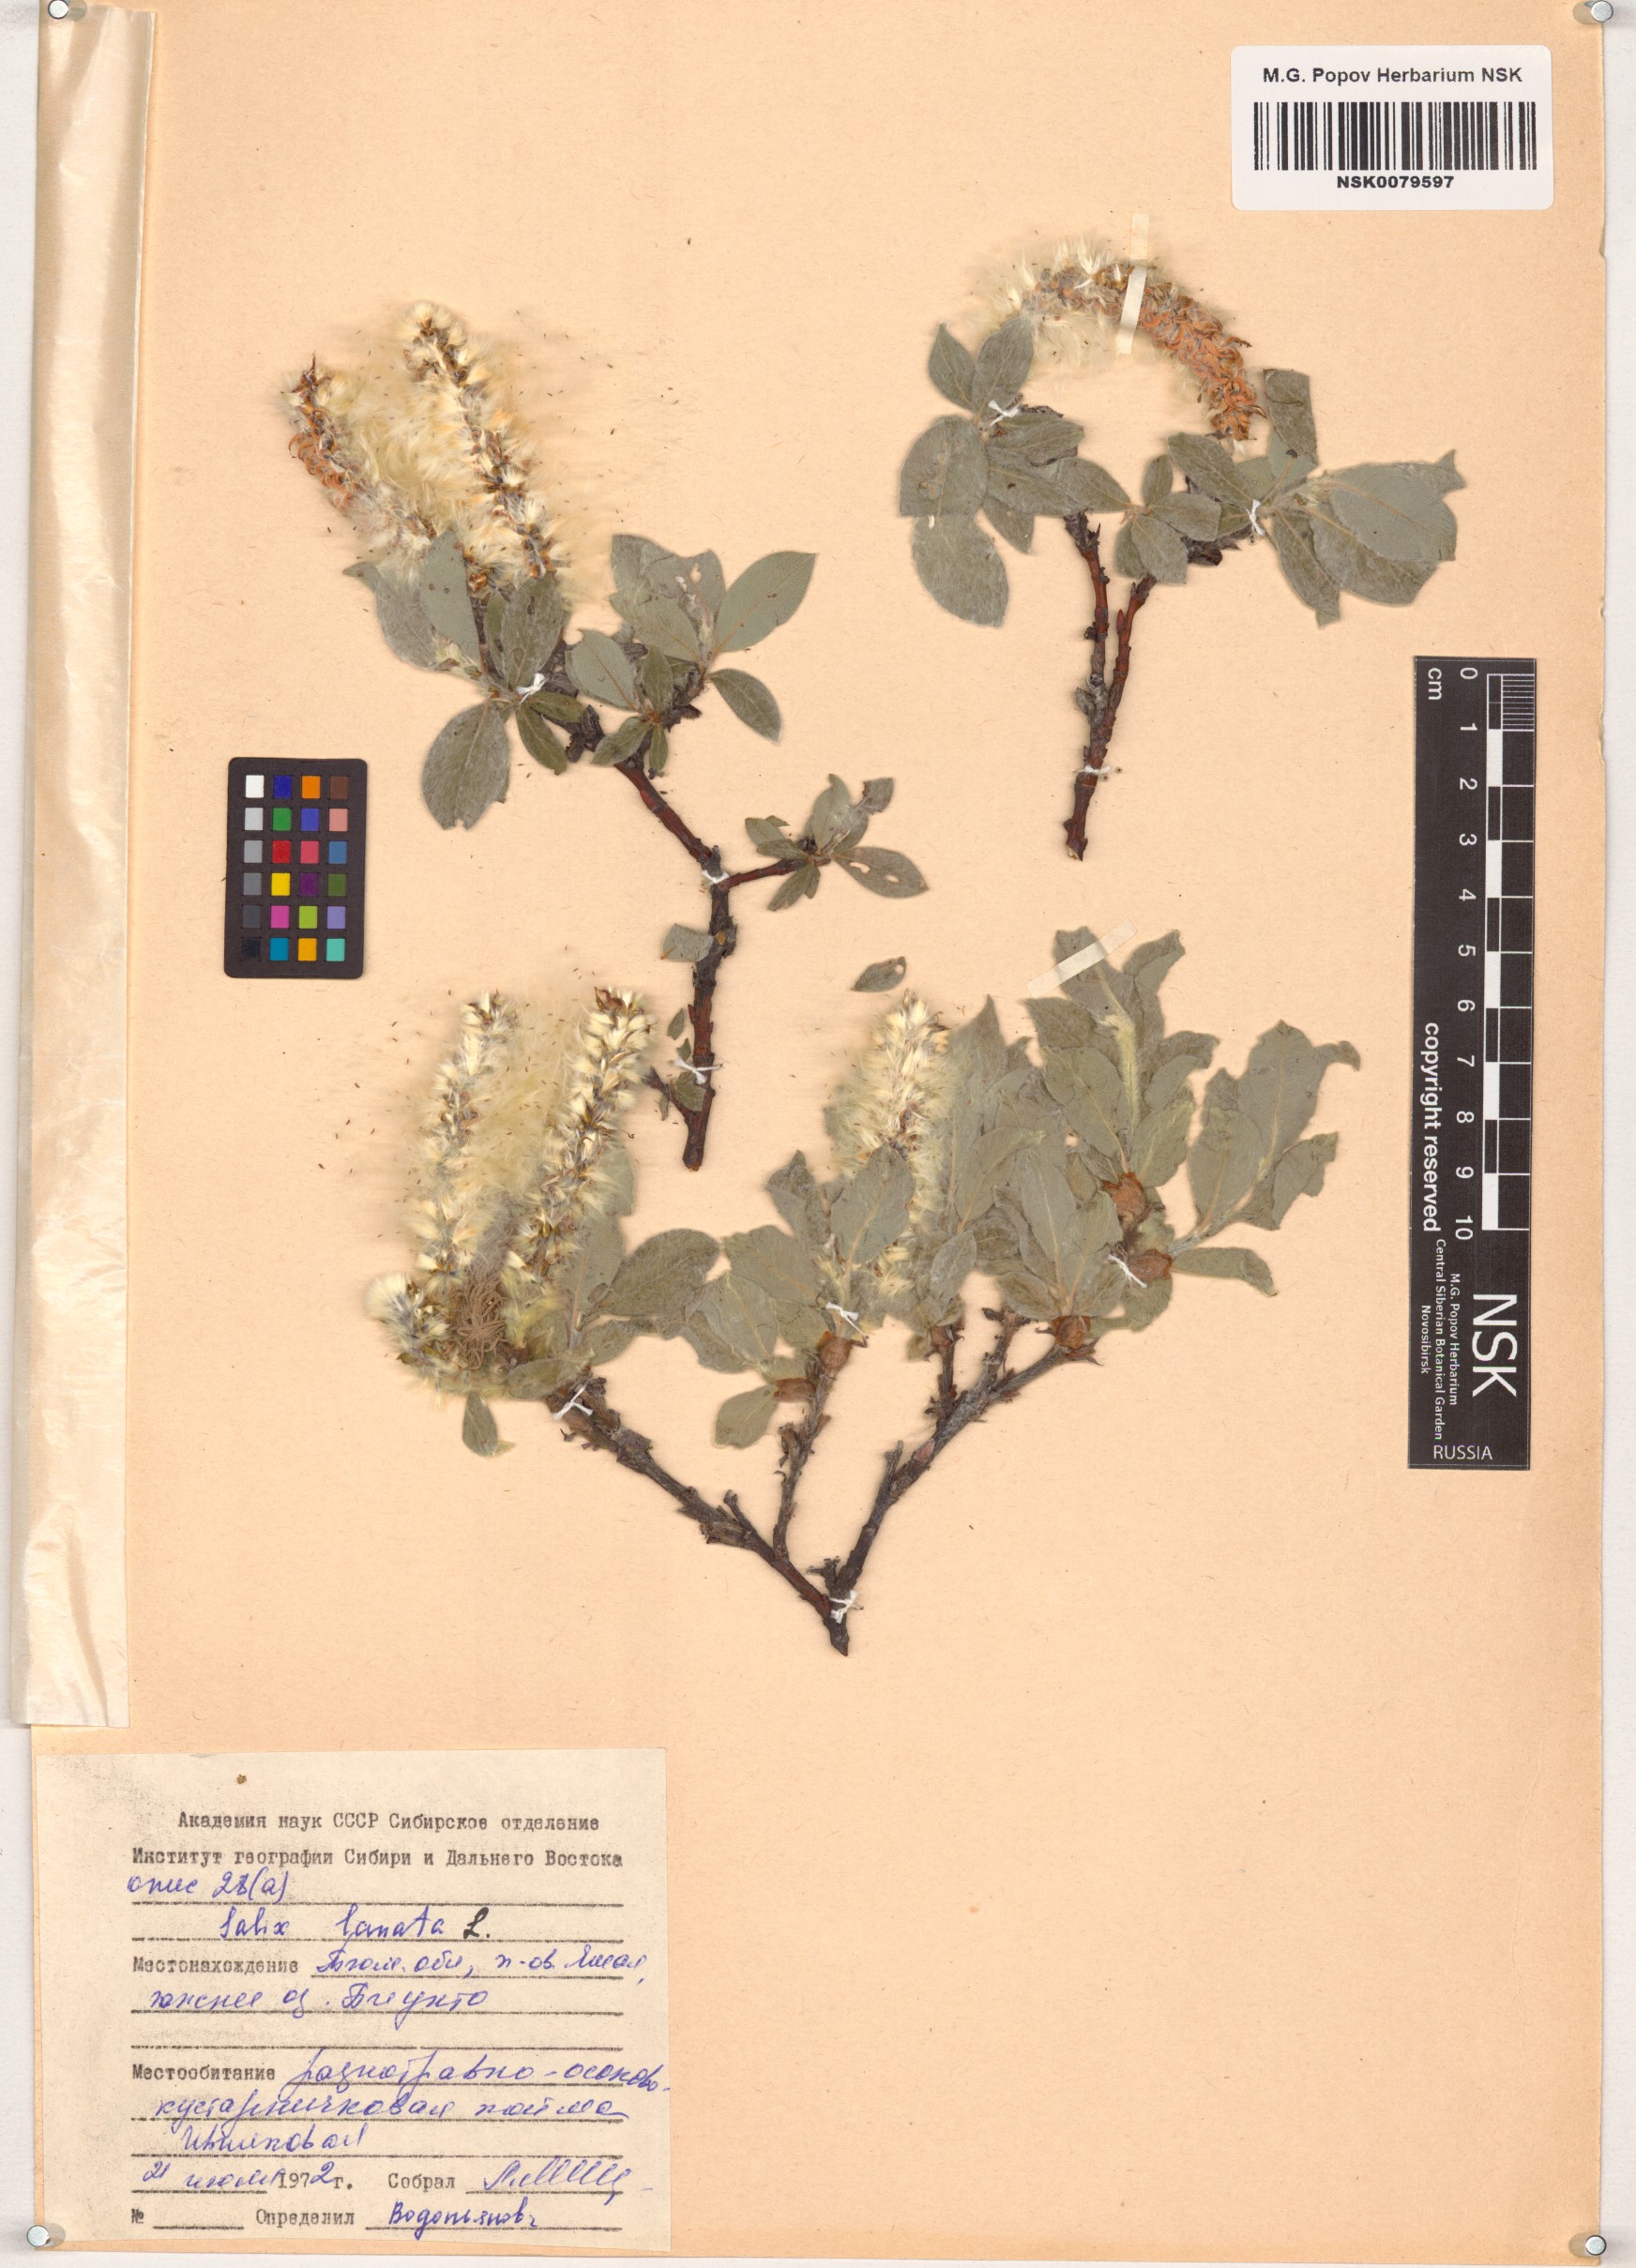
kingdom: Plantae
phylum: Tracheophyta
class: Magnoliopsida
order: Malpighiales
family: Salicaceae
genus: Salix
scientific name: Salix lanata
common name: Woolly willow
